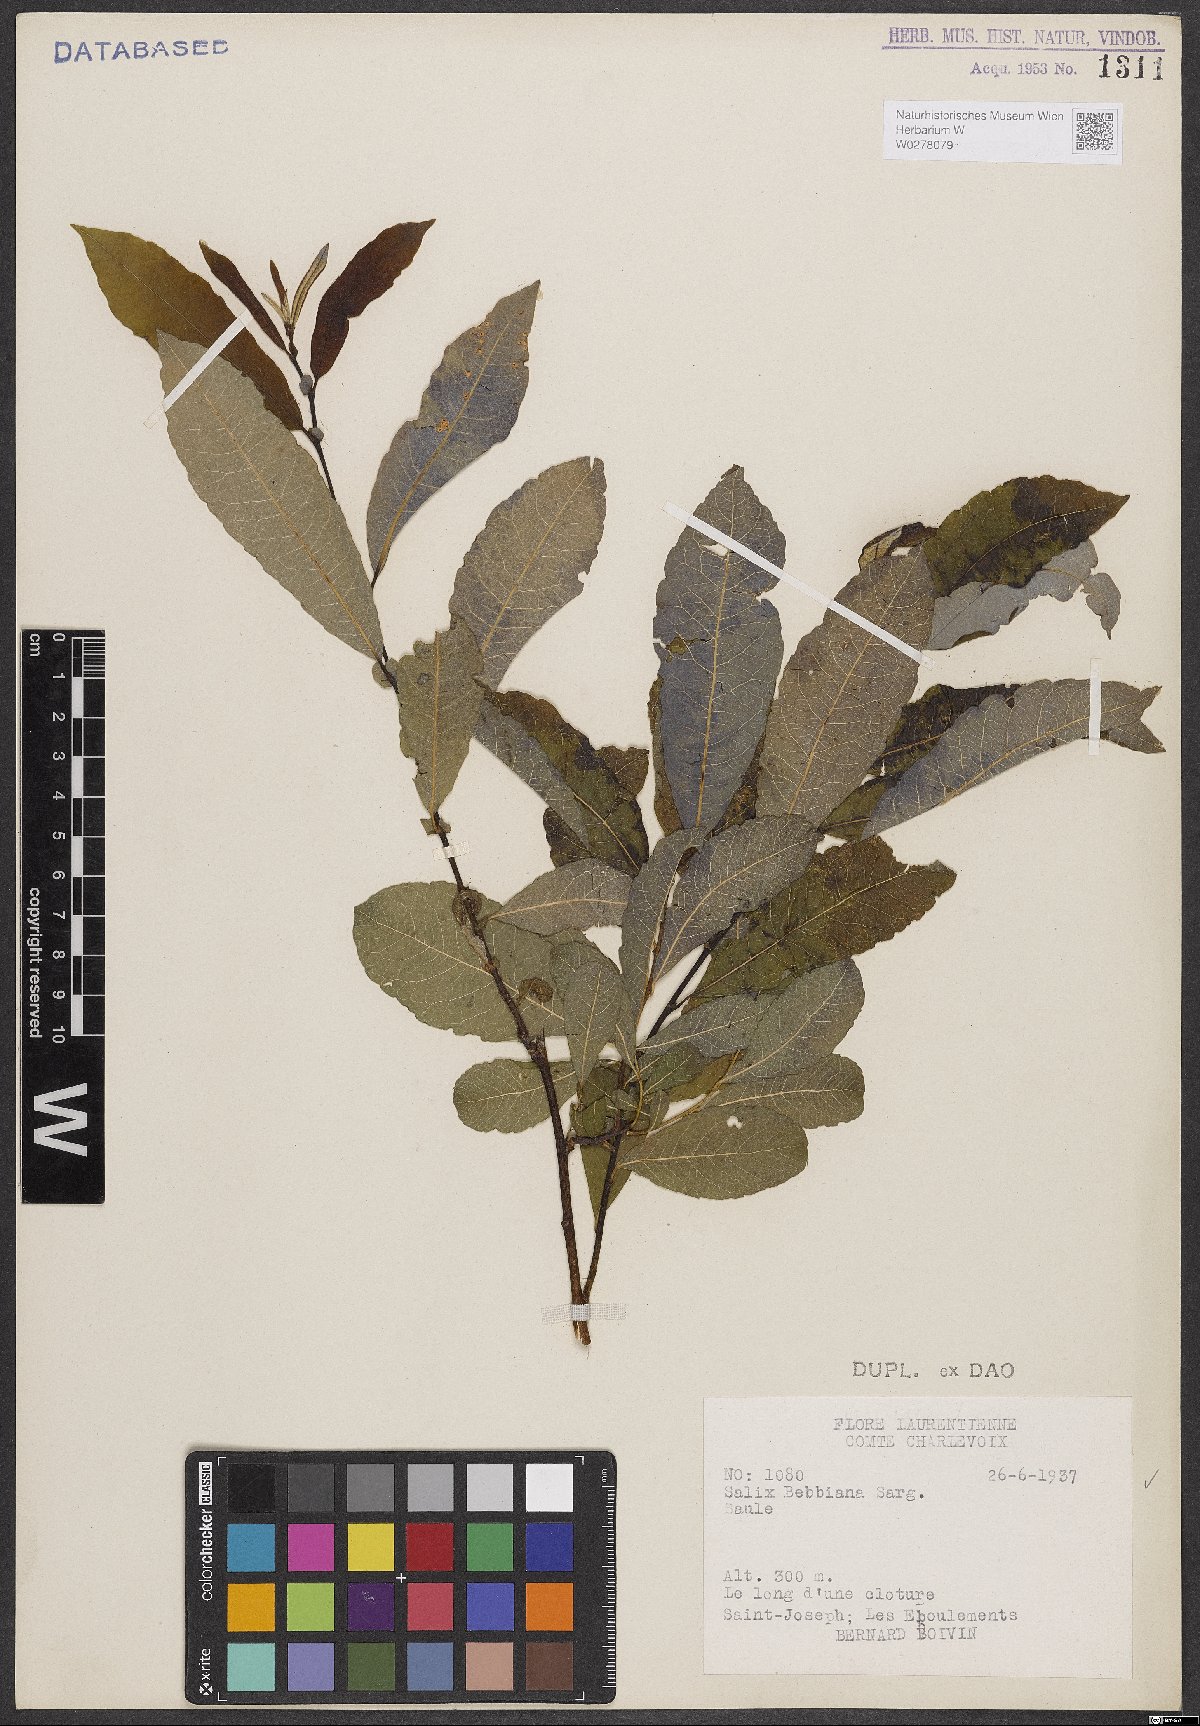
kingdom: Plantae
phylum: Tracheophyta
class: Magnoliopsida
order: Malpighiales
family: Salicaceae
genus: Salix
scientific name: Salix bebbiana
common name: Bebb's willow
